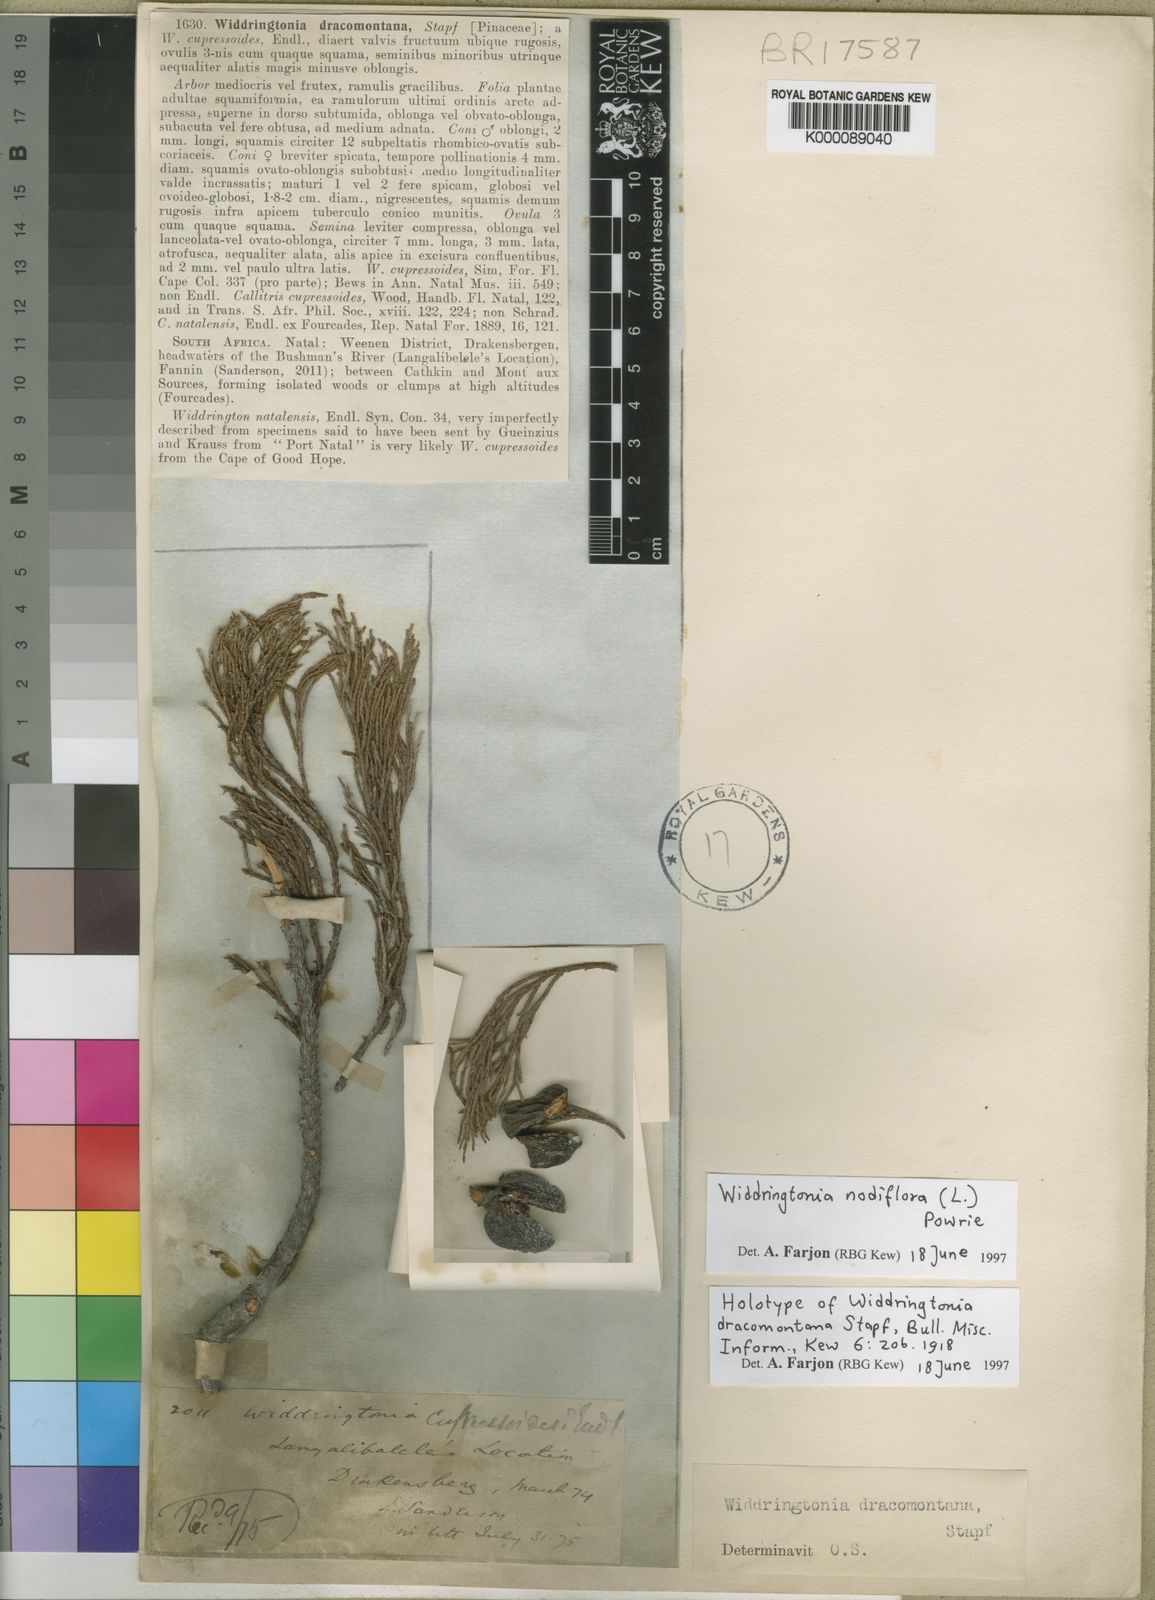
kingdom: Plantae
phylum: Tracheophyta
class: Pinopsida
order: Pinales
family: Cupressaceae
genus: Widdringtonia
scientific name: Widdringtonia nodiflora
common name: Cape cypress
